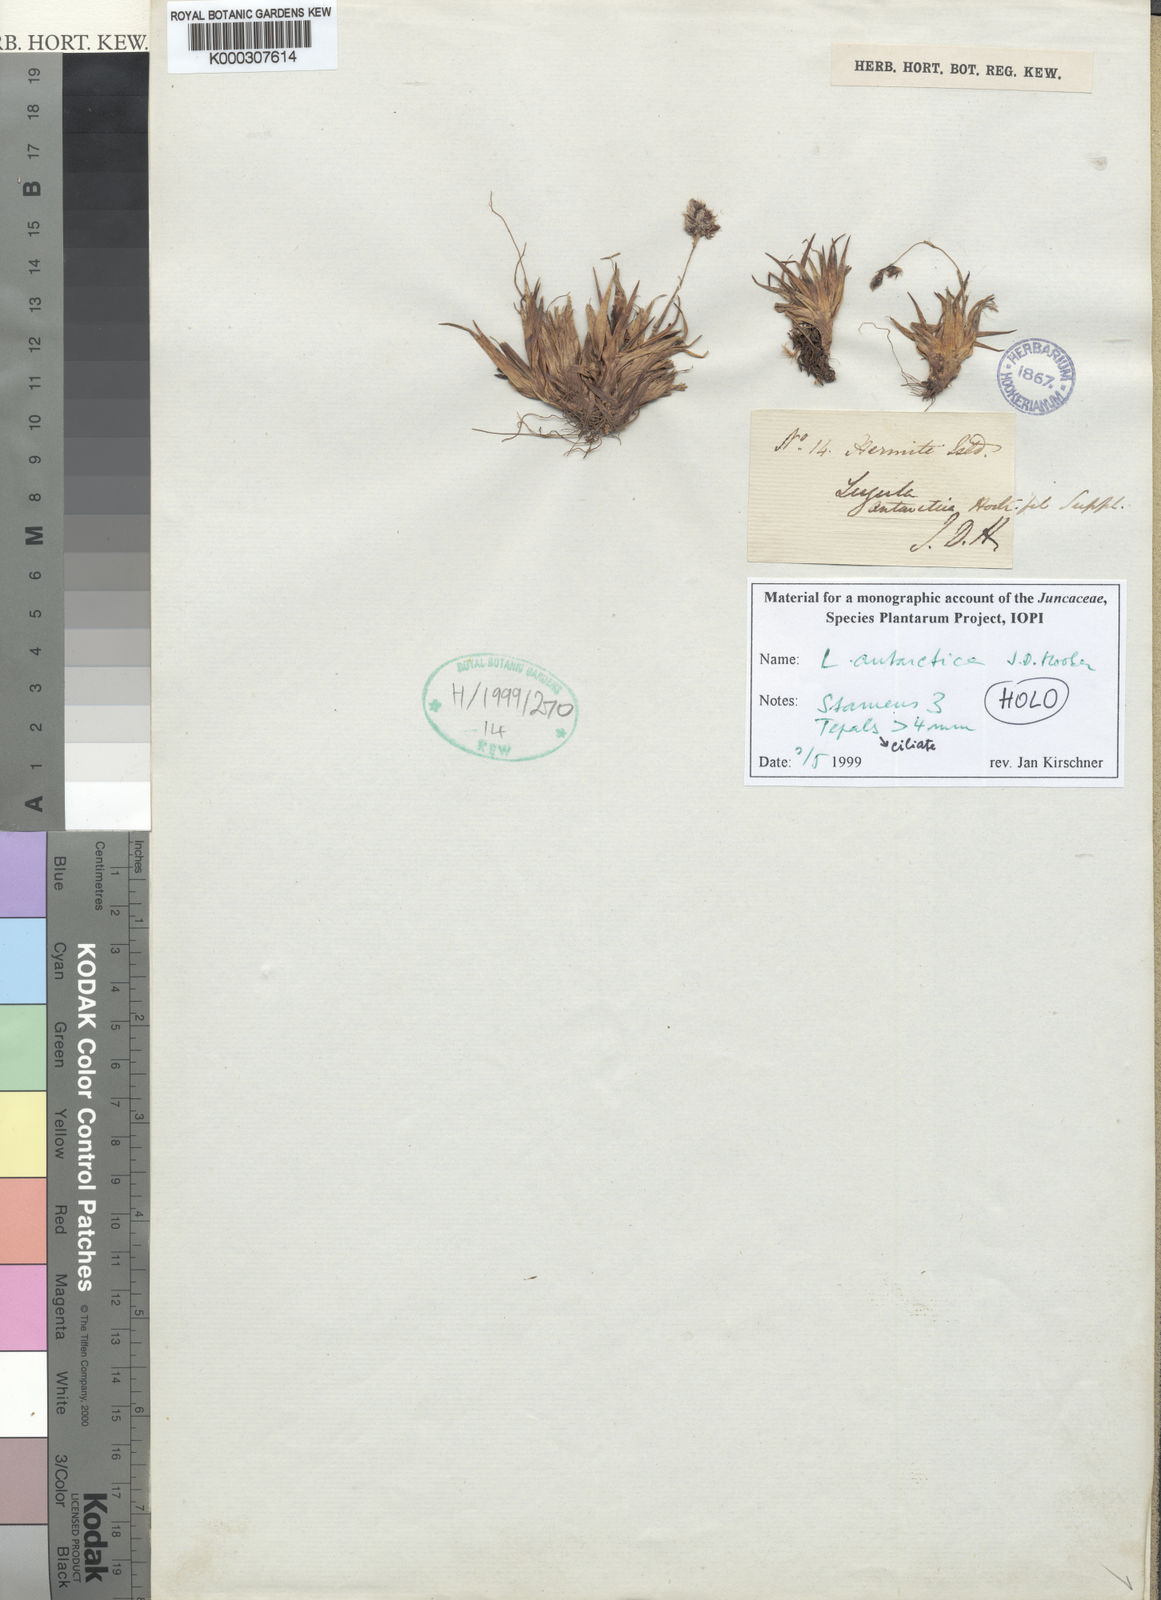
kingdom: Plantae
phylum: Tracheophyta
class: Liliopsida
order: Poales
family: Juncaceae
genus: Luzula
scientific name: Luzula antarctica
